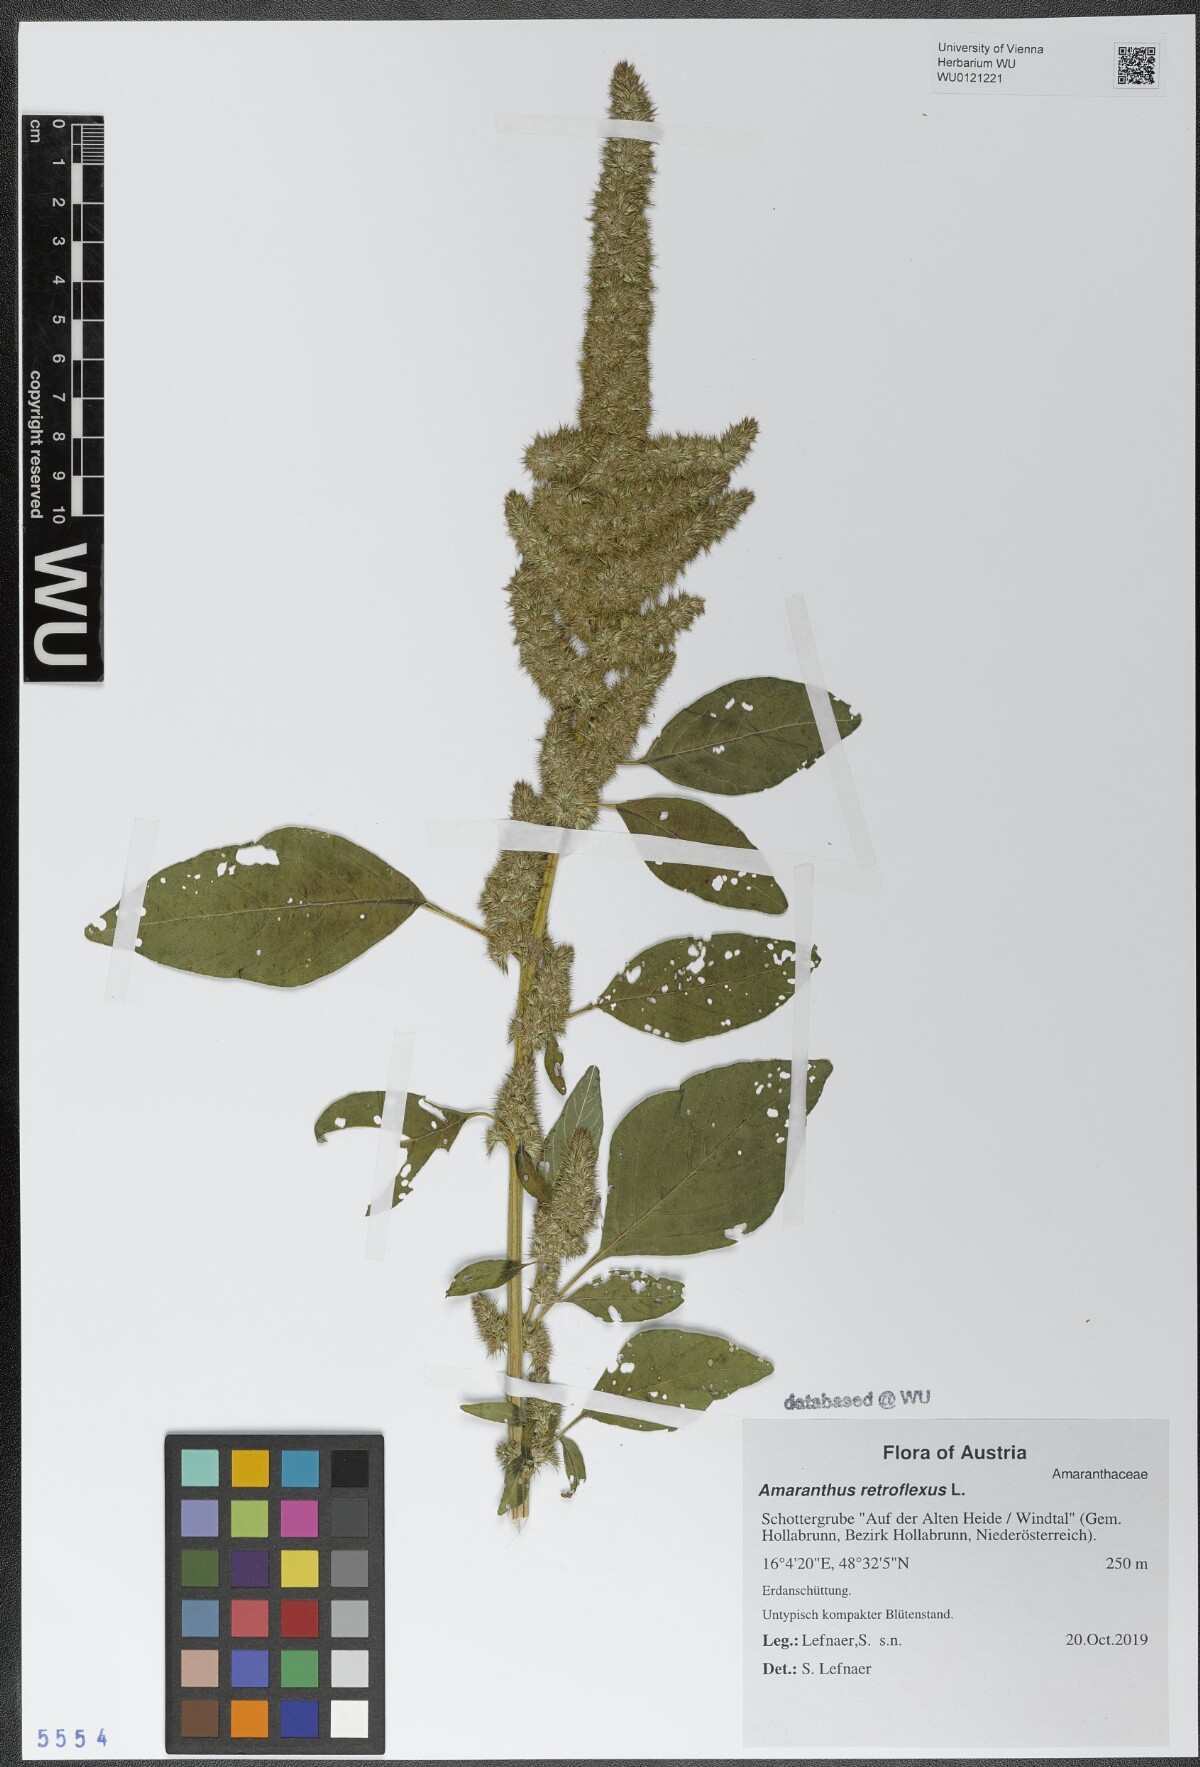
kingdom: Plantae
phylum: Tracheophyta
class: Magnoliopsida
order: Caryophyllales
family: Amaranthaceae
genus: Amaranthus
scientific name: Amaranthus retroflexus
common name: Redroot amaranth
